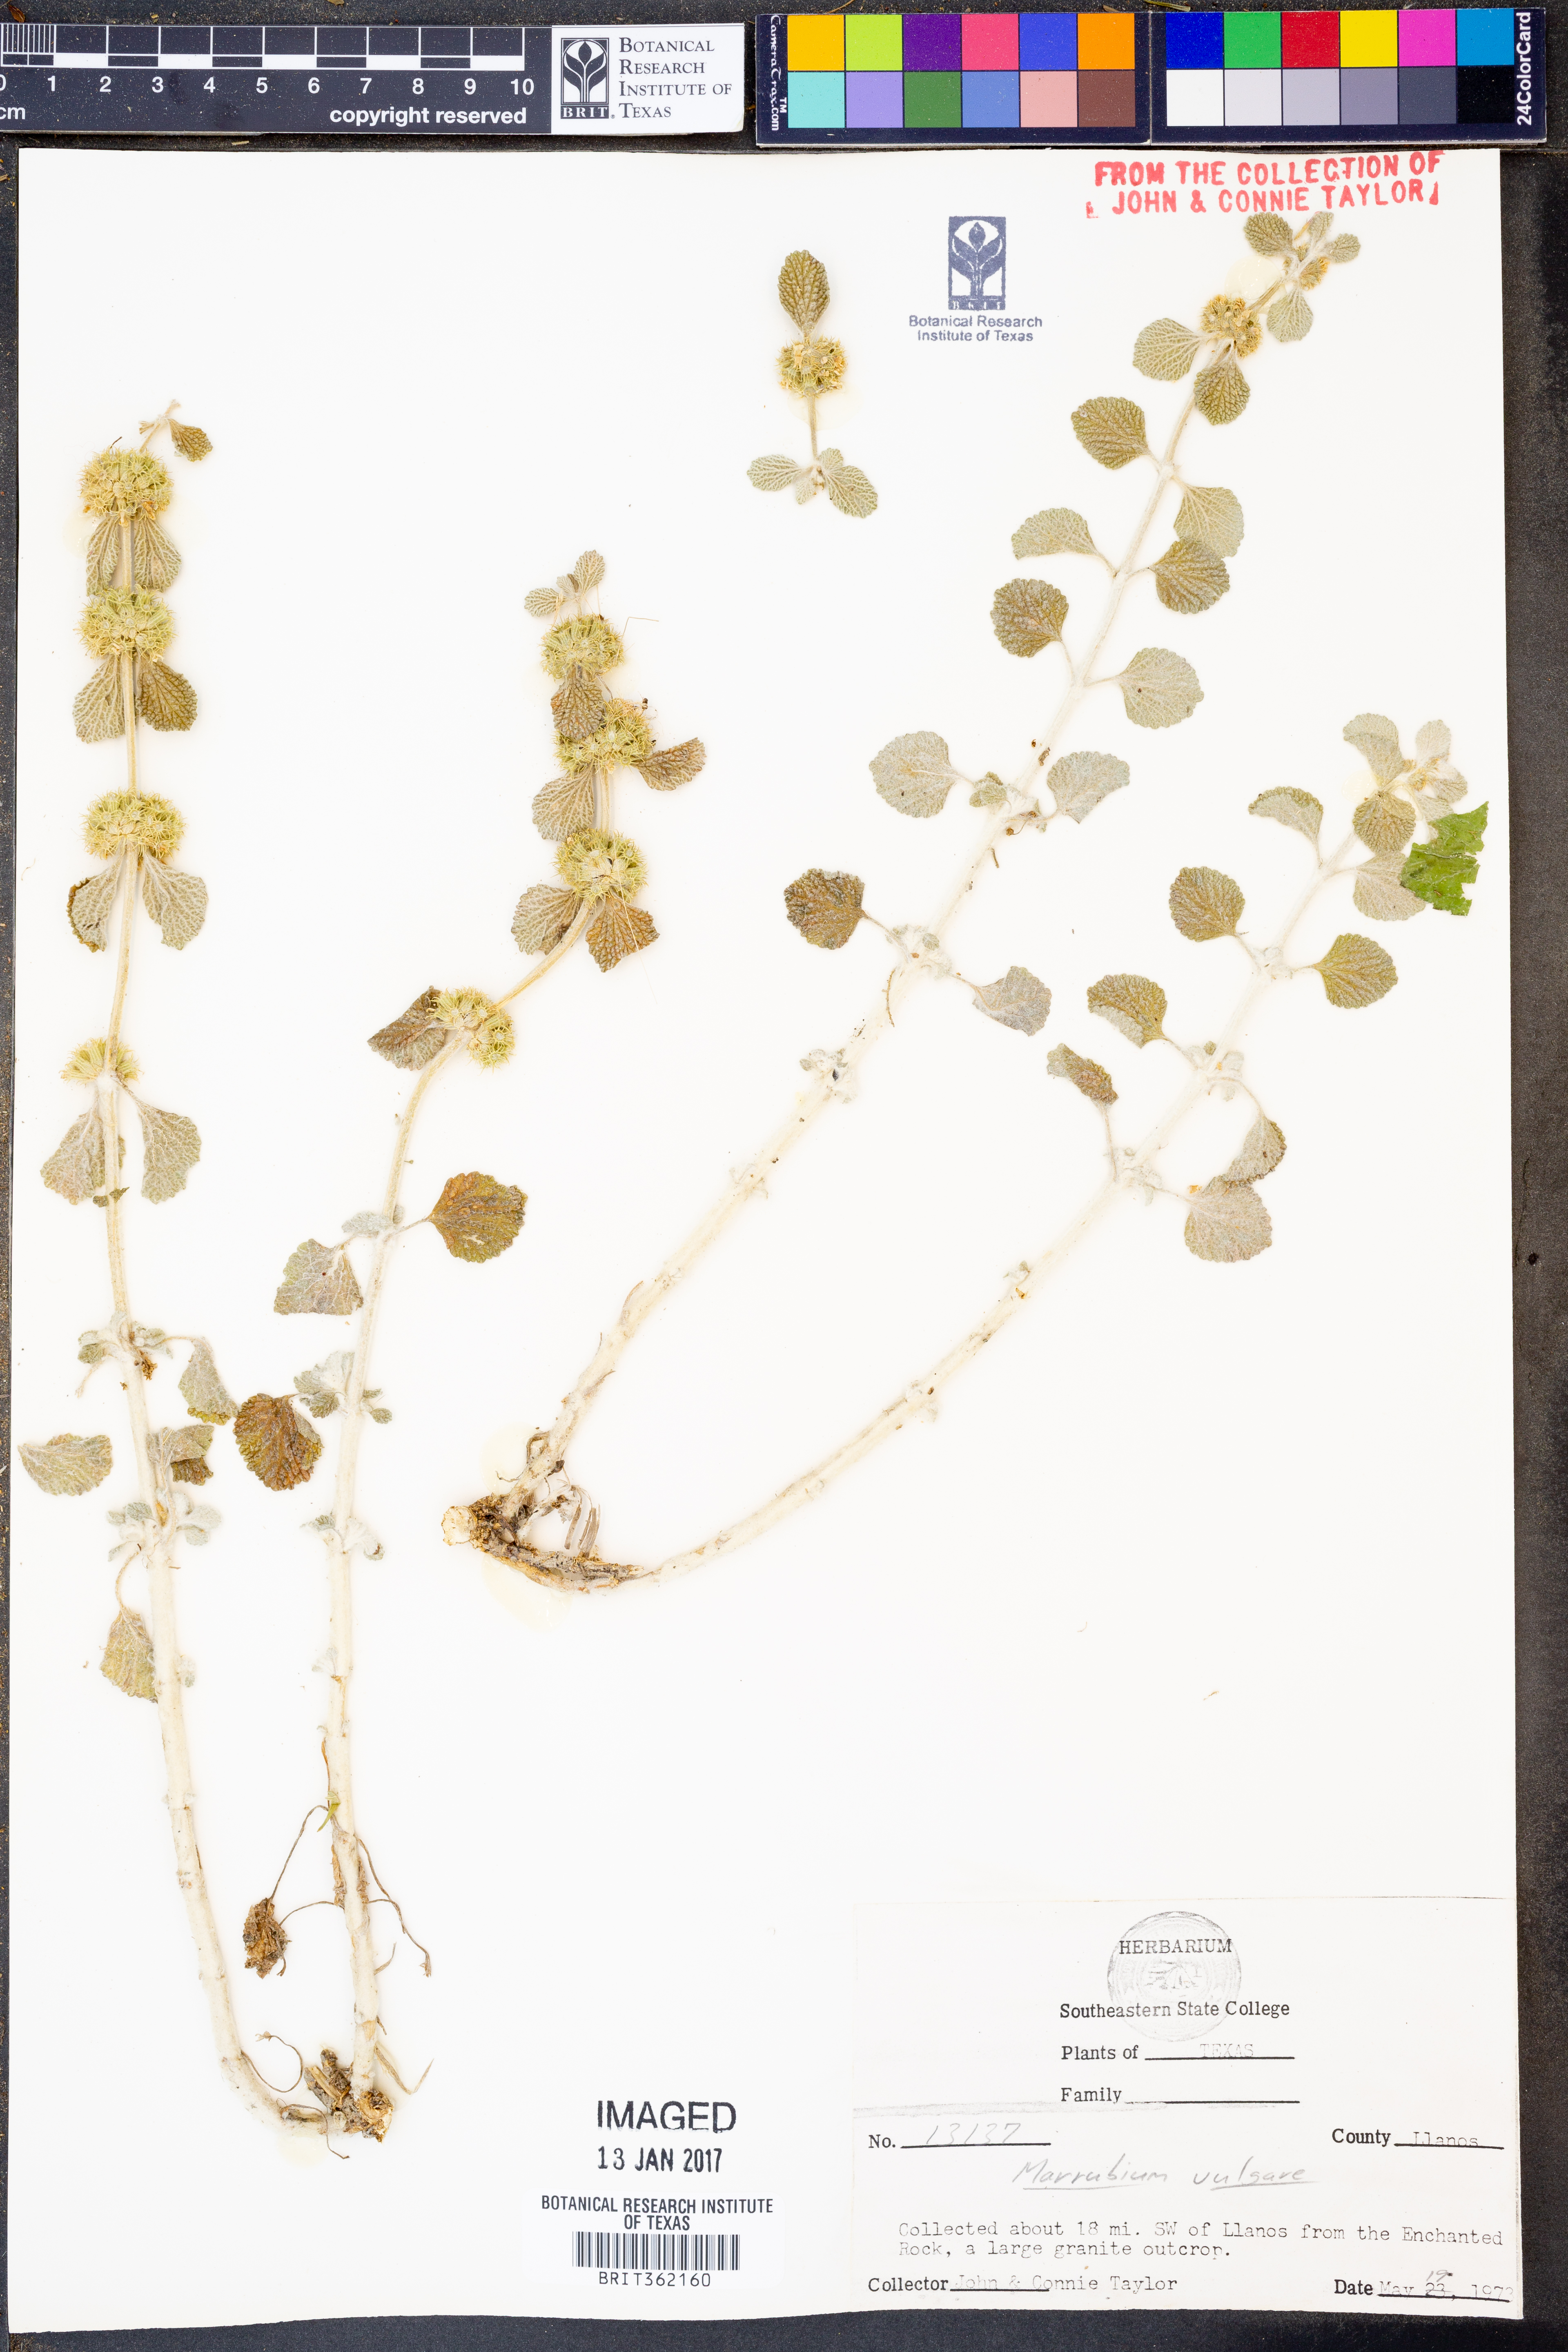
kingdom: Plantae
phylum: Tracheophyta
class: Magnoliopsida
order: Lamiales
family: Lamiaceae
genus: Marrubium
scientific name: Marrubium vulgare
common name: Horehound
